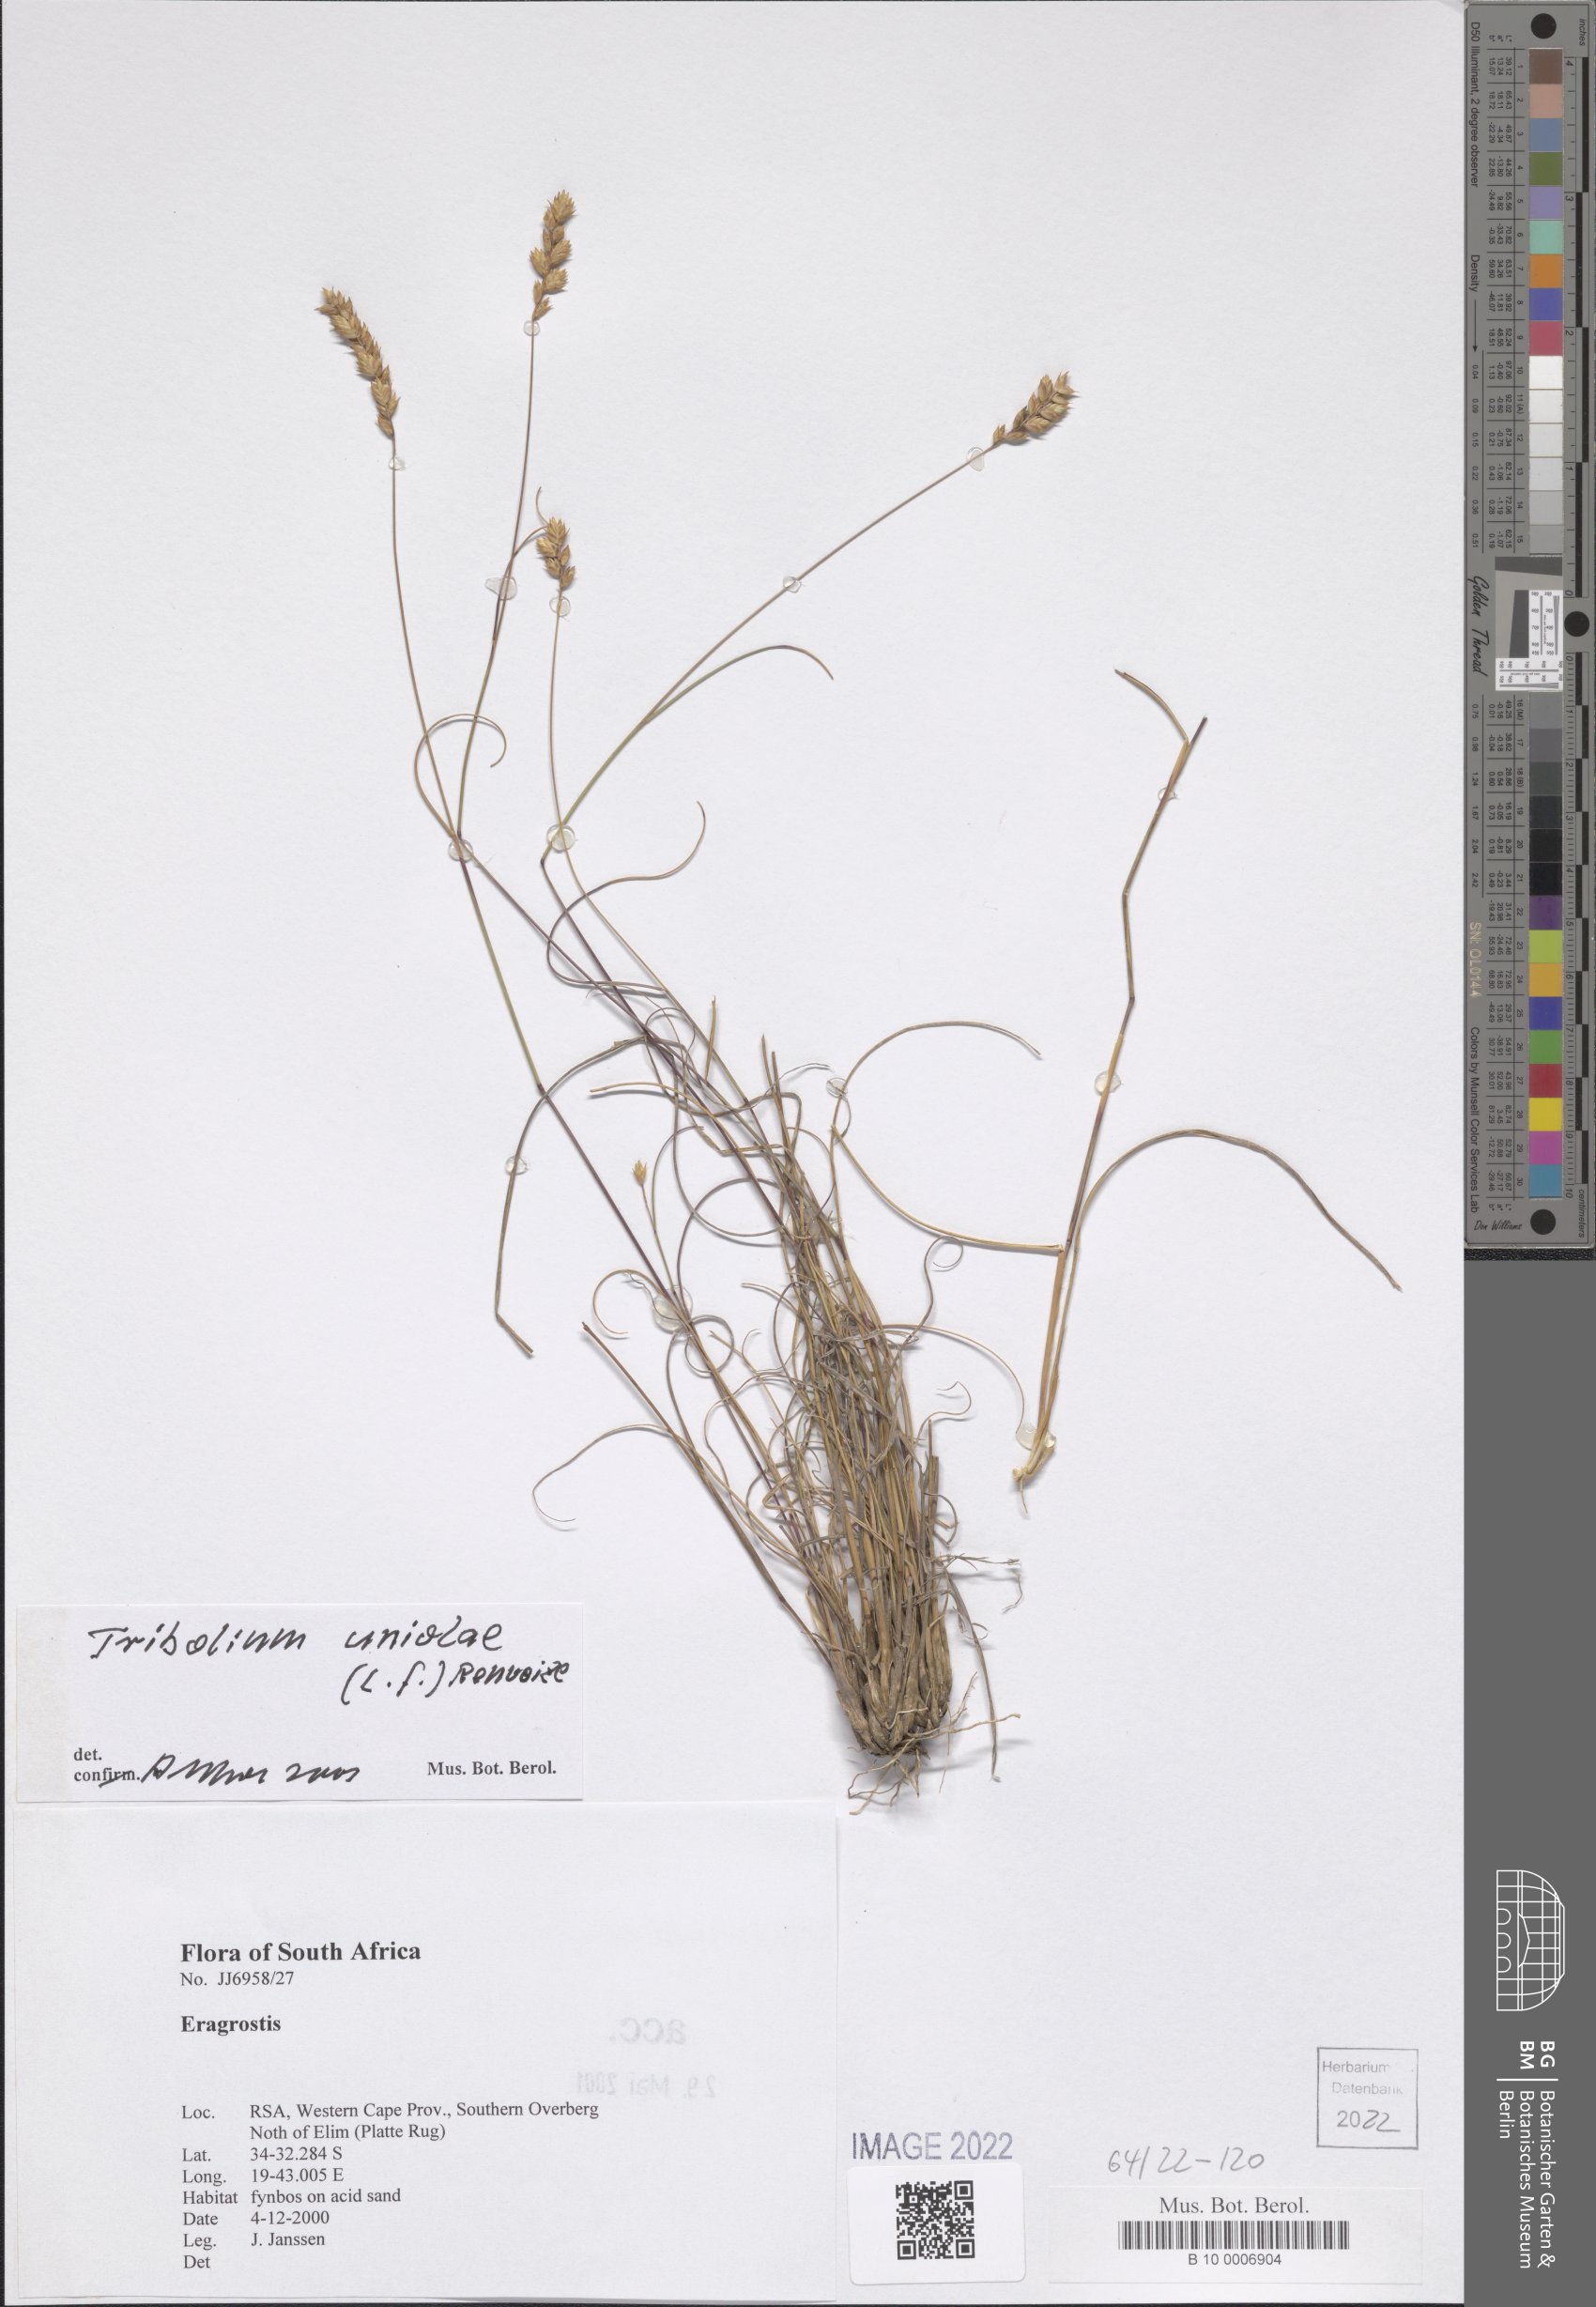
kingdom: Plantae
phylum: Tracheophyta
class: Liliopsida
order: Poales
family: Poaceae
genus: Tribolium
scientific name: Tribolium uniolae
